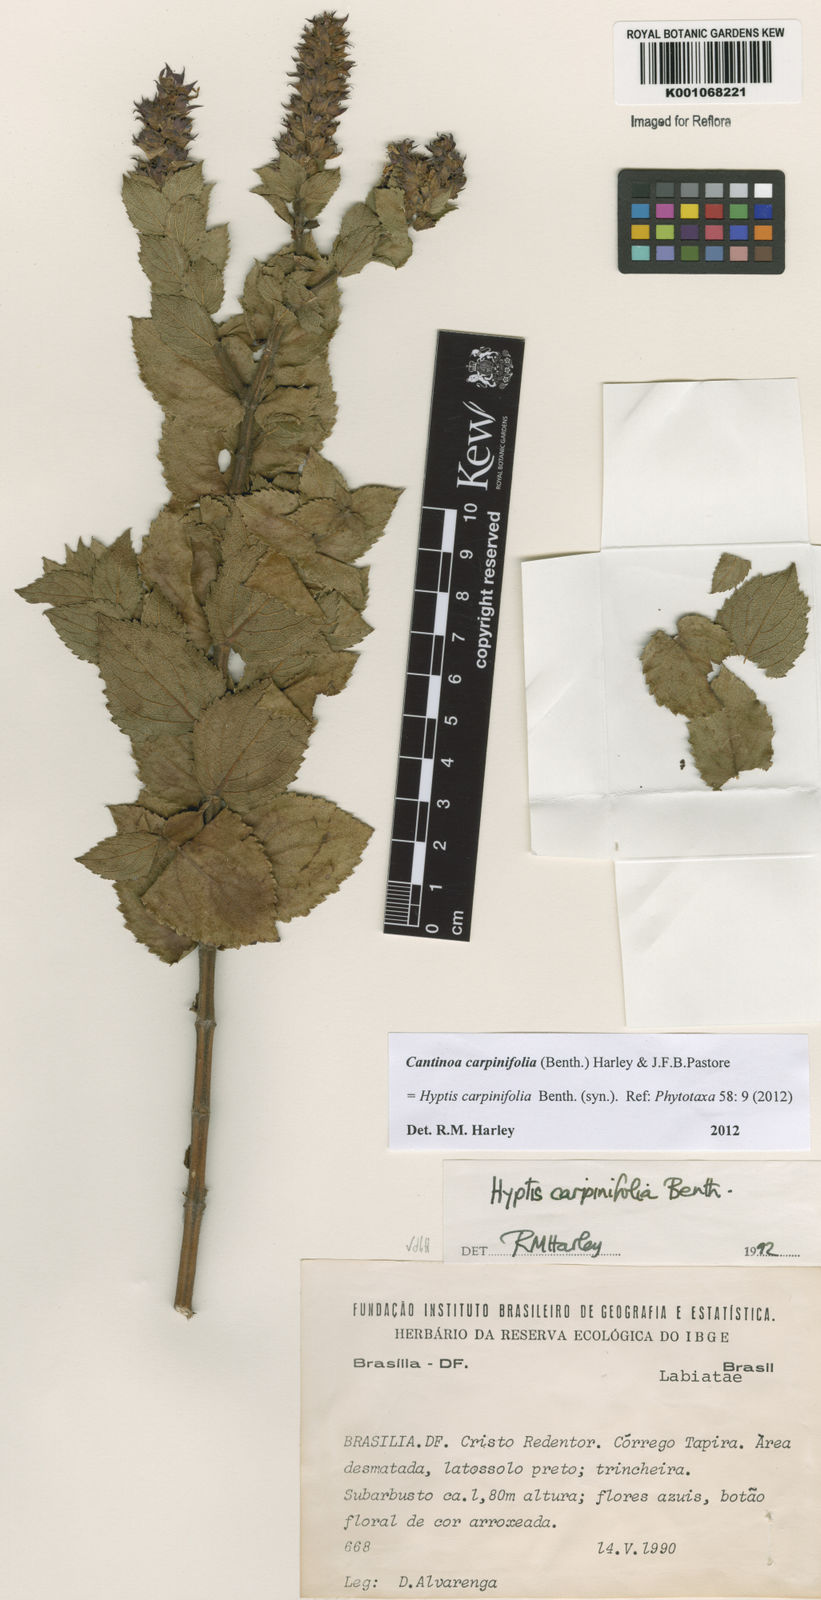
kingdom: Plantae
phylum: Tracheophyta
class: Magnoliopsida
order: Lamiales
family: Lamiaceae
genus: Cantinoa
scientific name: Cantinoa carpinifolia
